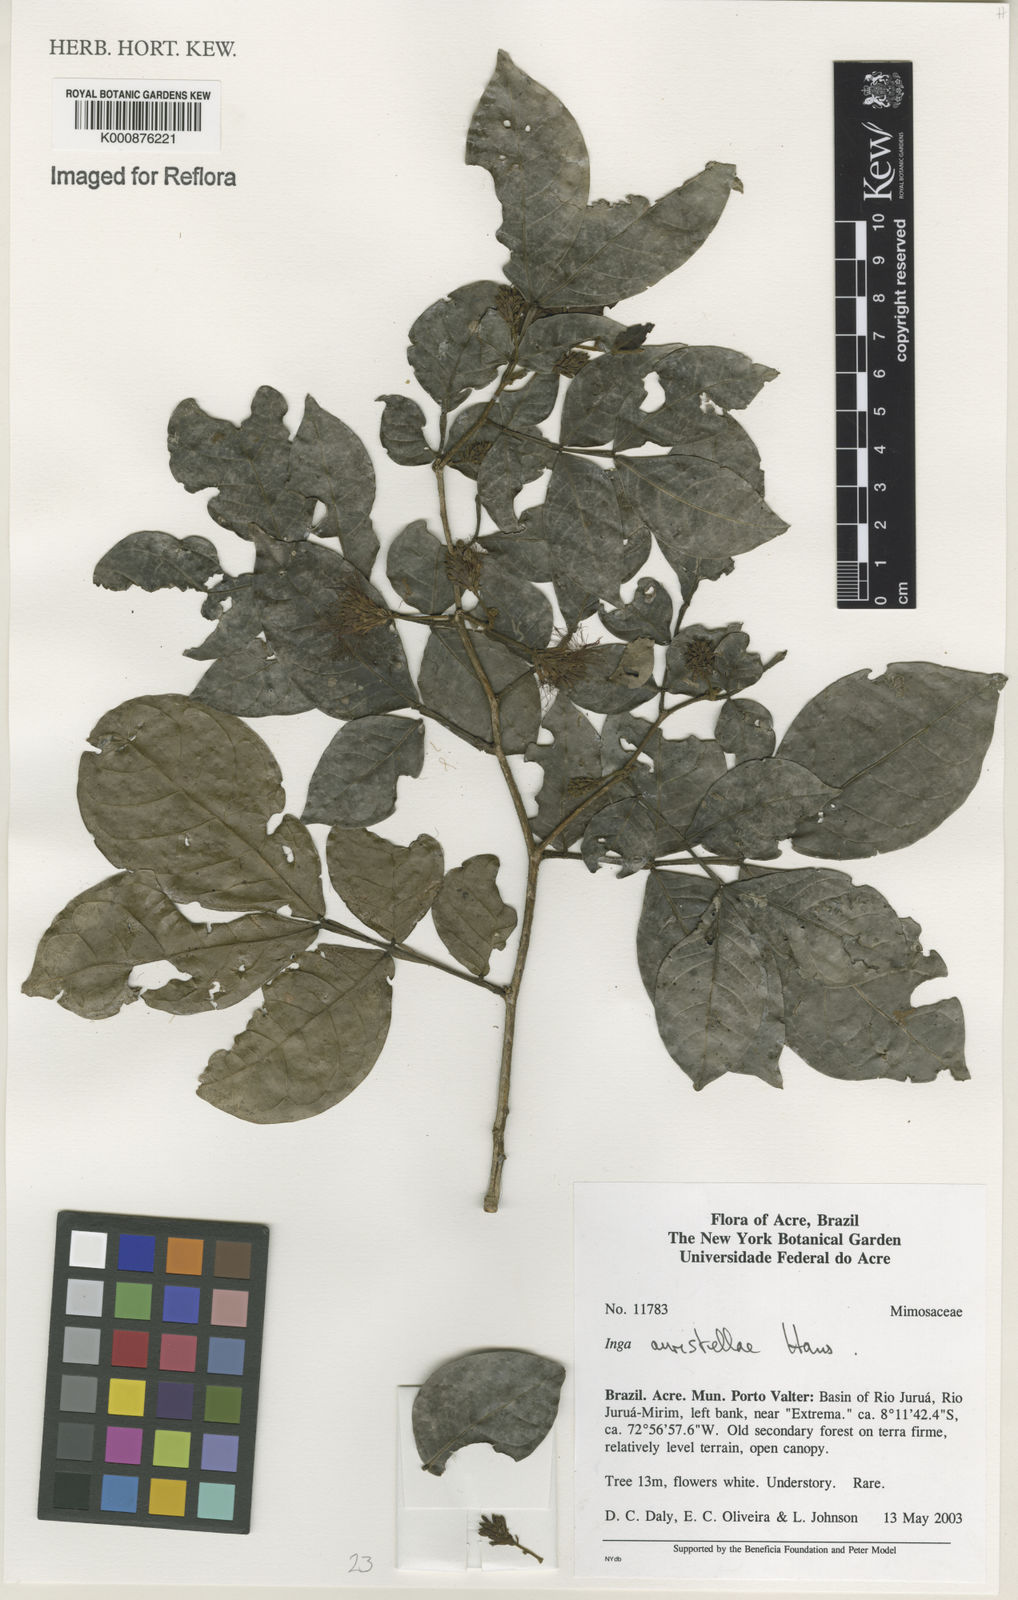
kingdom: Plantae
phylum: Tracheophyta
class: Magnoliopsida
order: Fabales
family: Fabaceae
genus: Inga
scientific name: Inga auristellae
